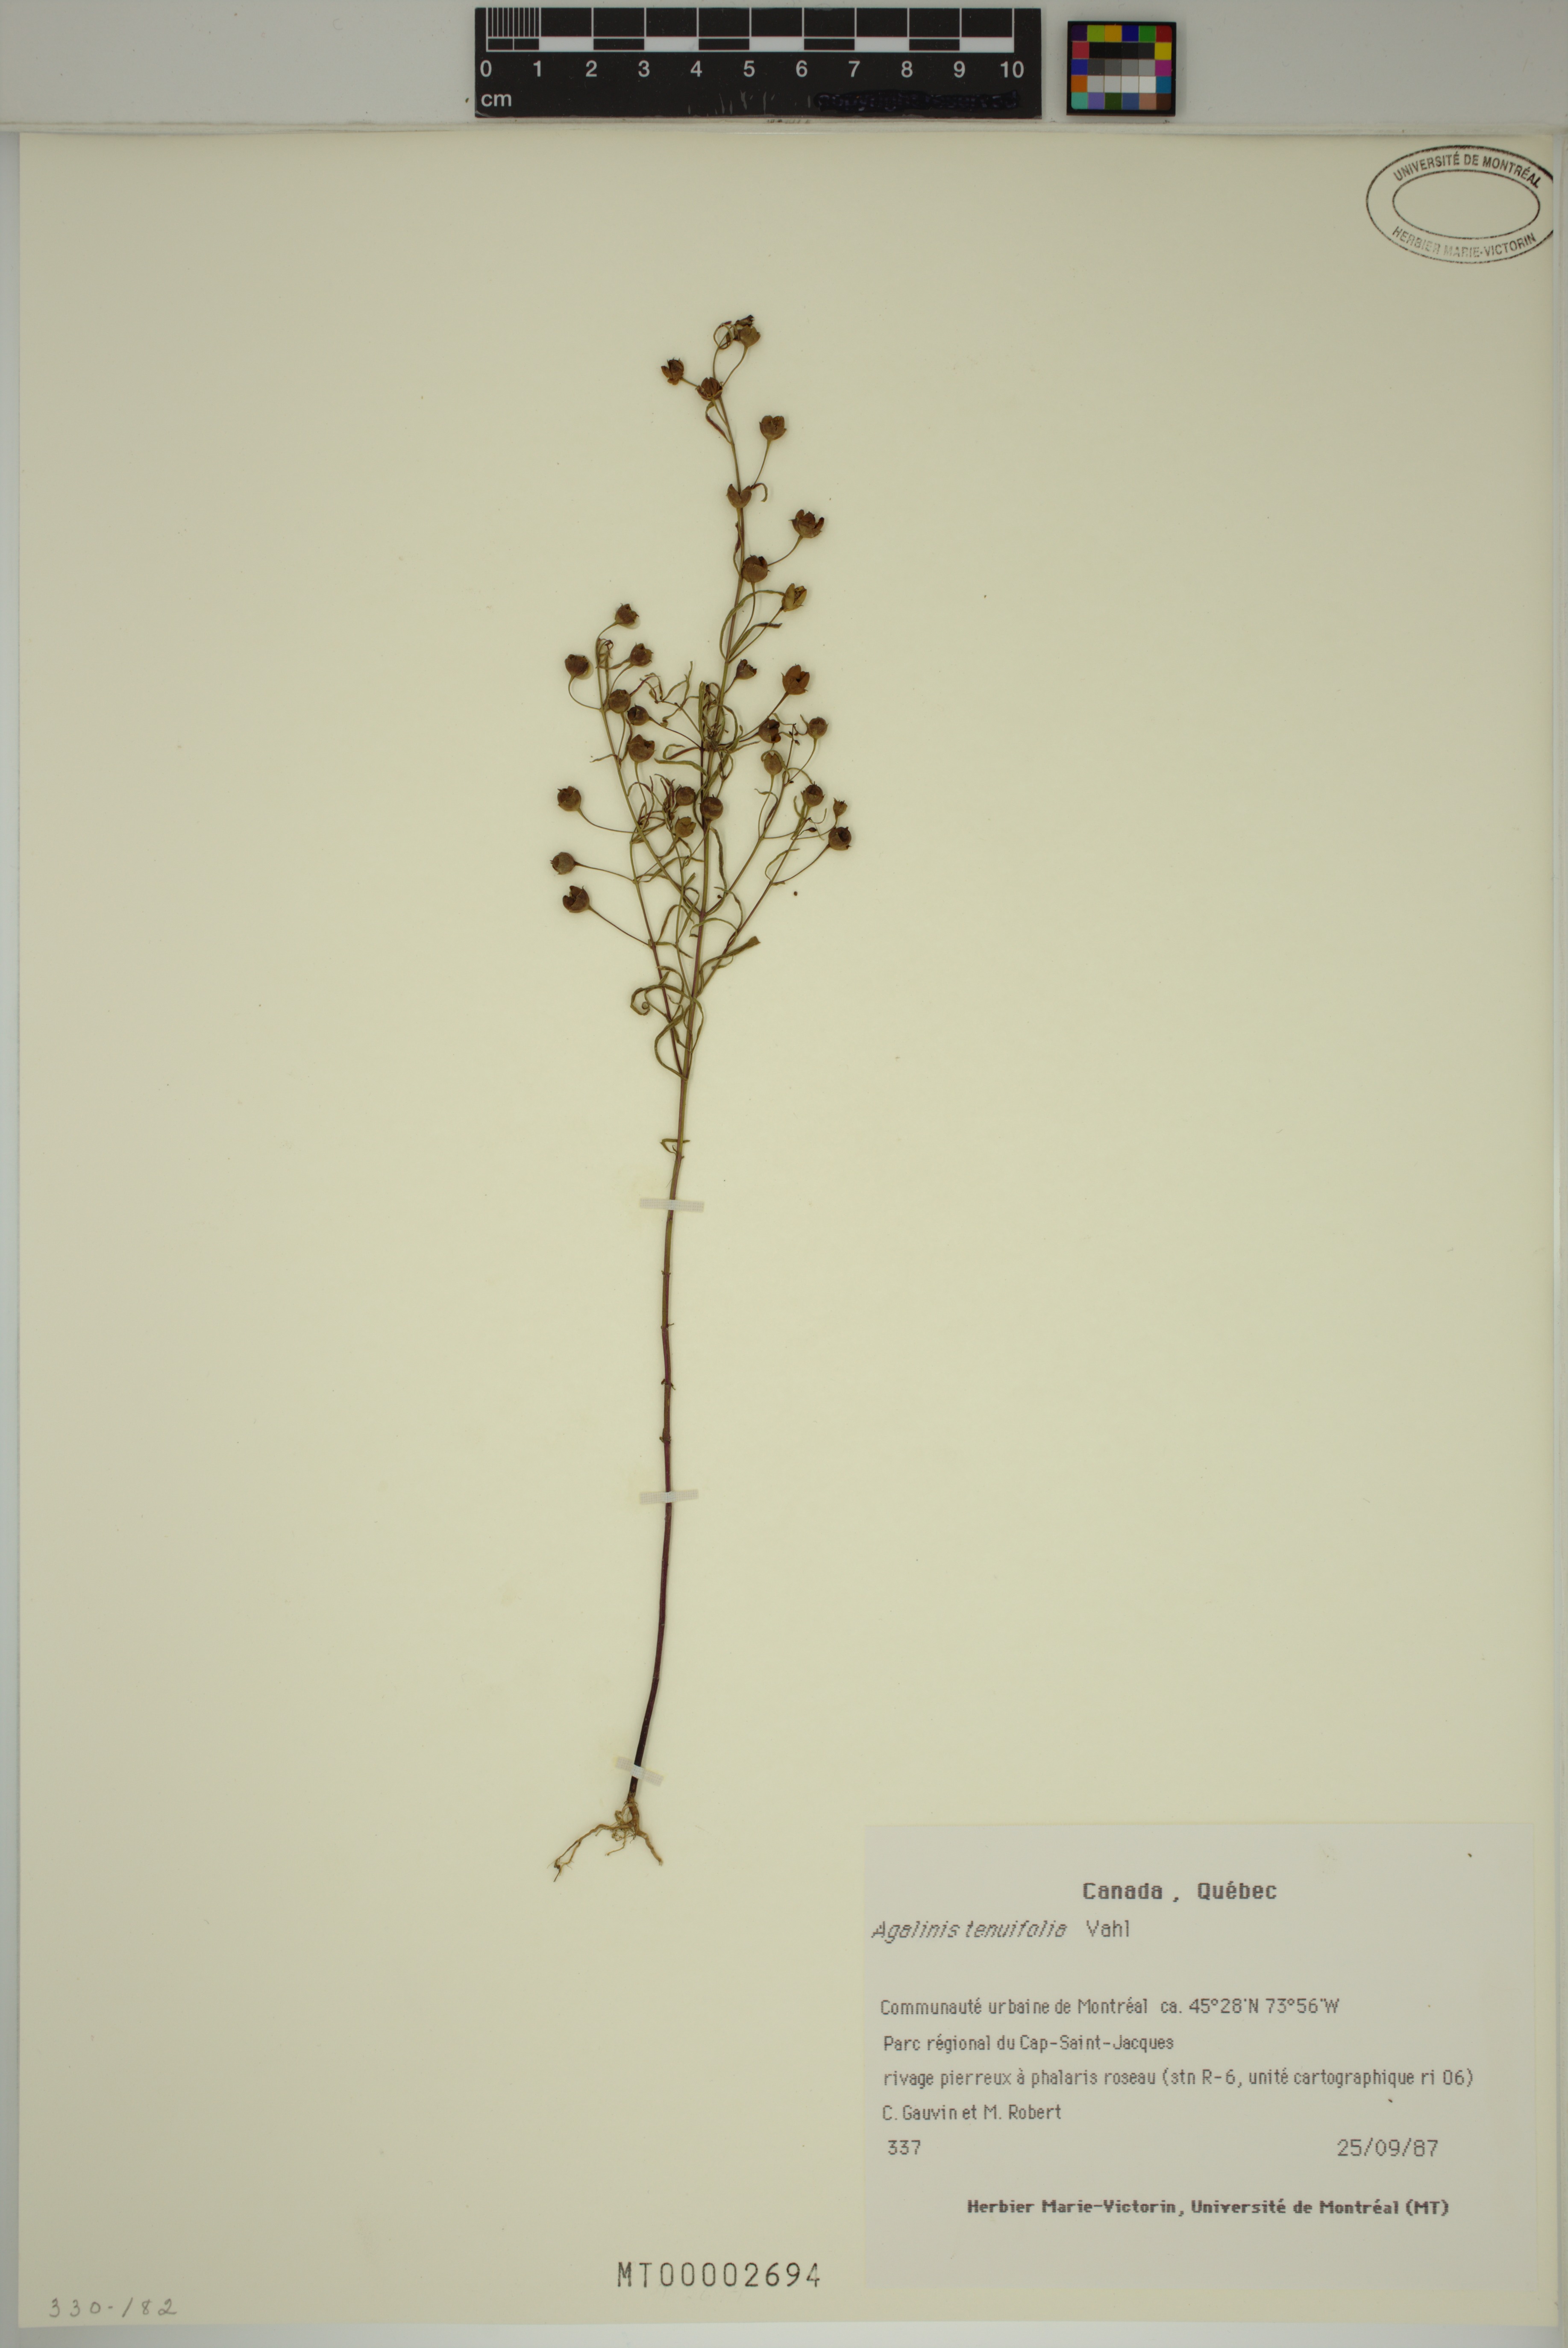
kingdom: Plantae
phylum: Tracheophyta
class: Magnoliopsida
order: Lamiales
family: Orobanchaceae
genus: Agalinis
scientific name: Agalinis tenuifolia
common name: Slender agalinis
